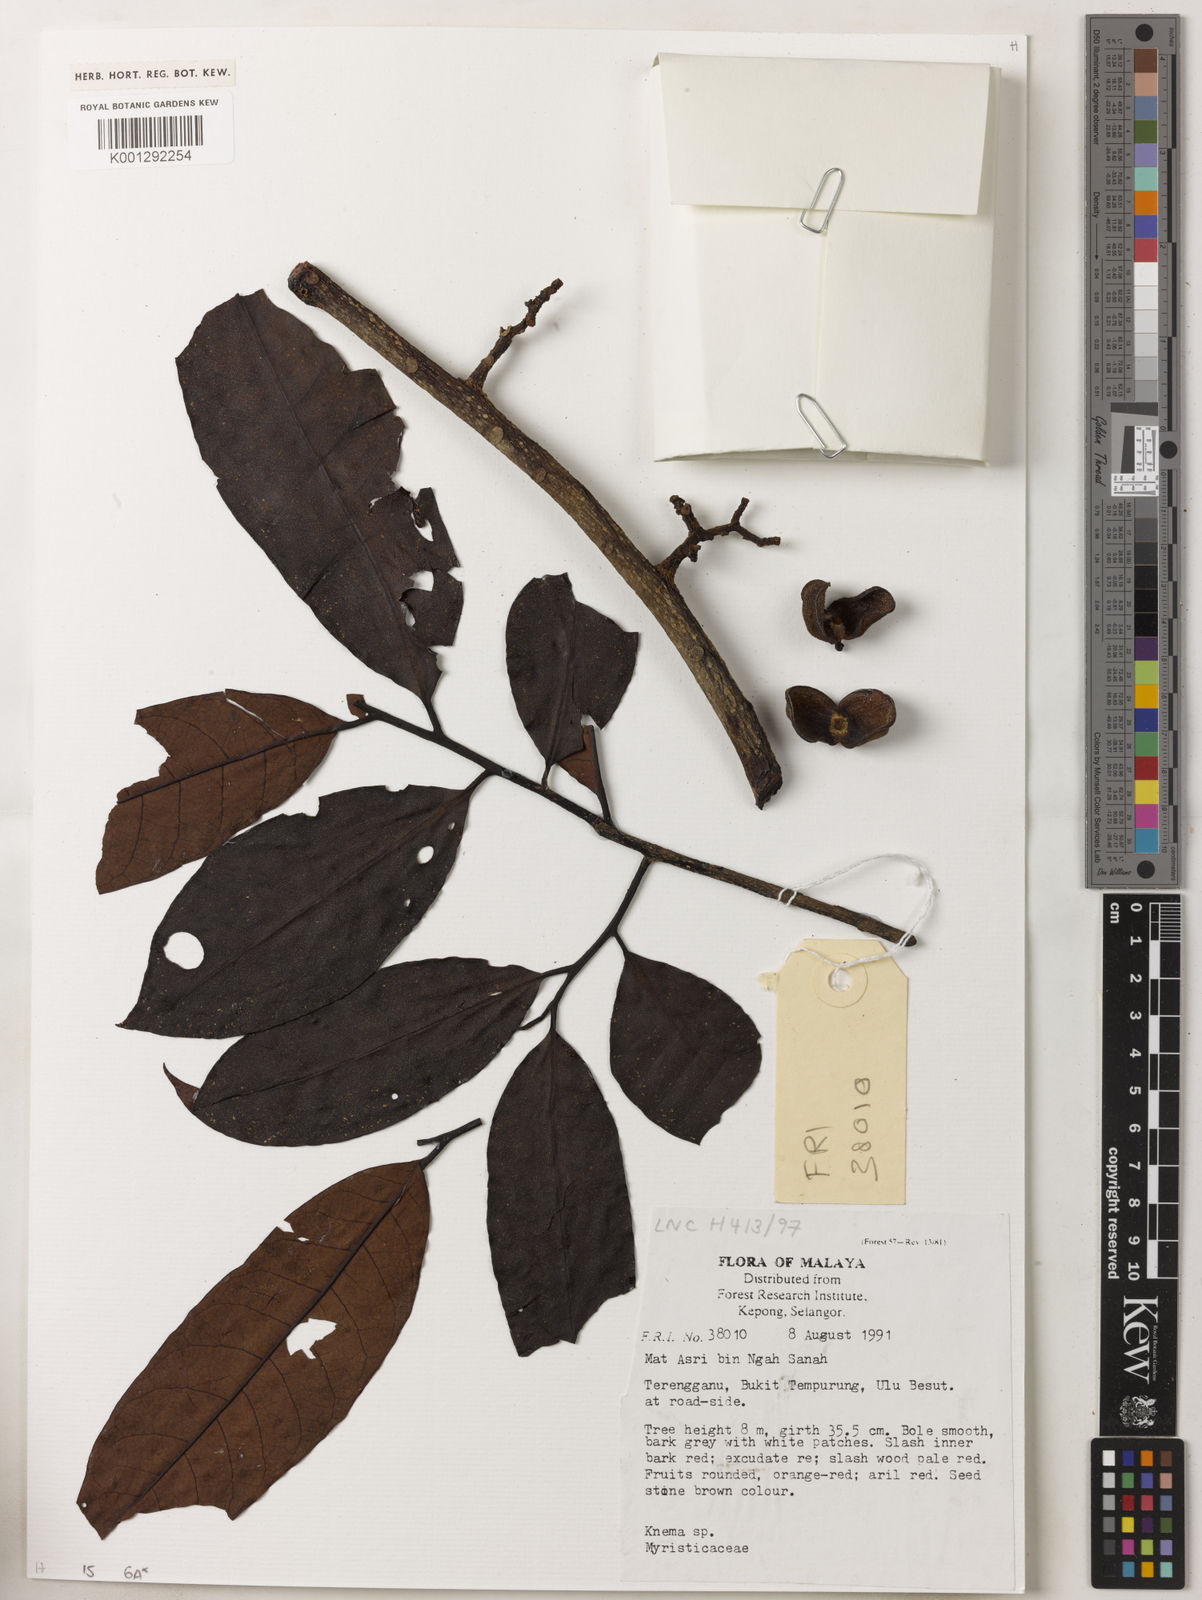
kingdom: Plantae
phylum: Tracheophyta
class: Magnoliopsida
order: Magnoliales
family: Myristicaceae
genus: Knema
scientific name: Knema
